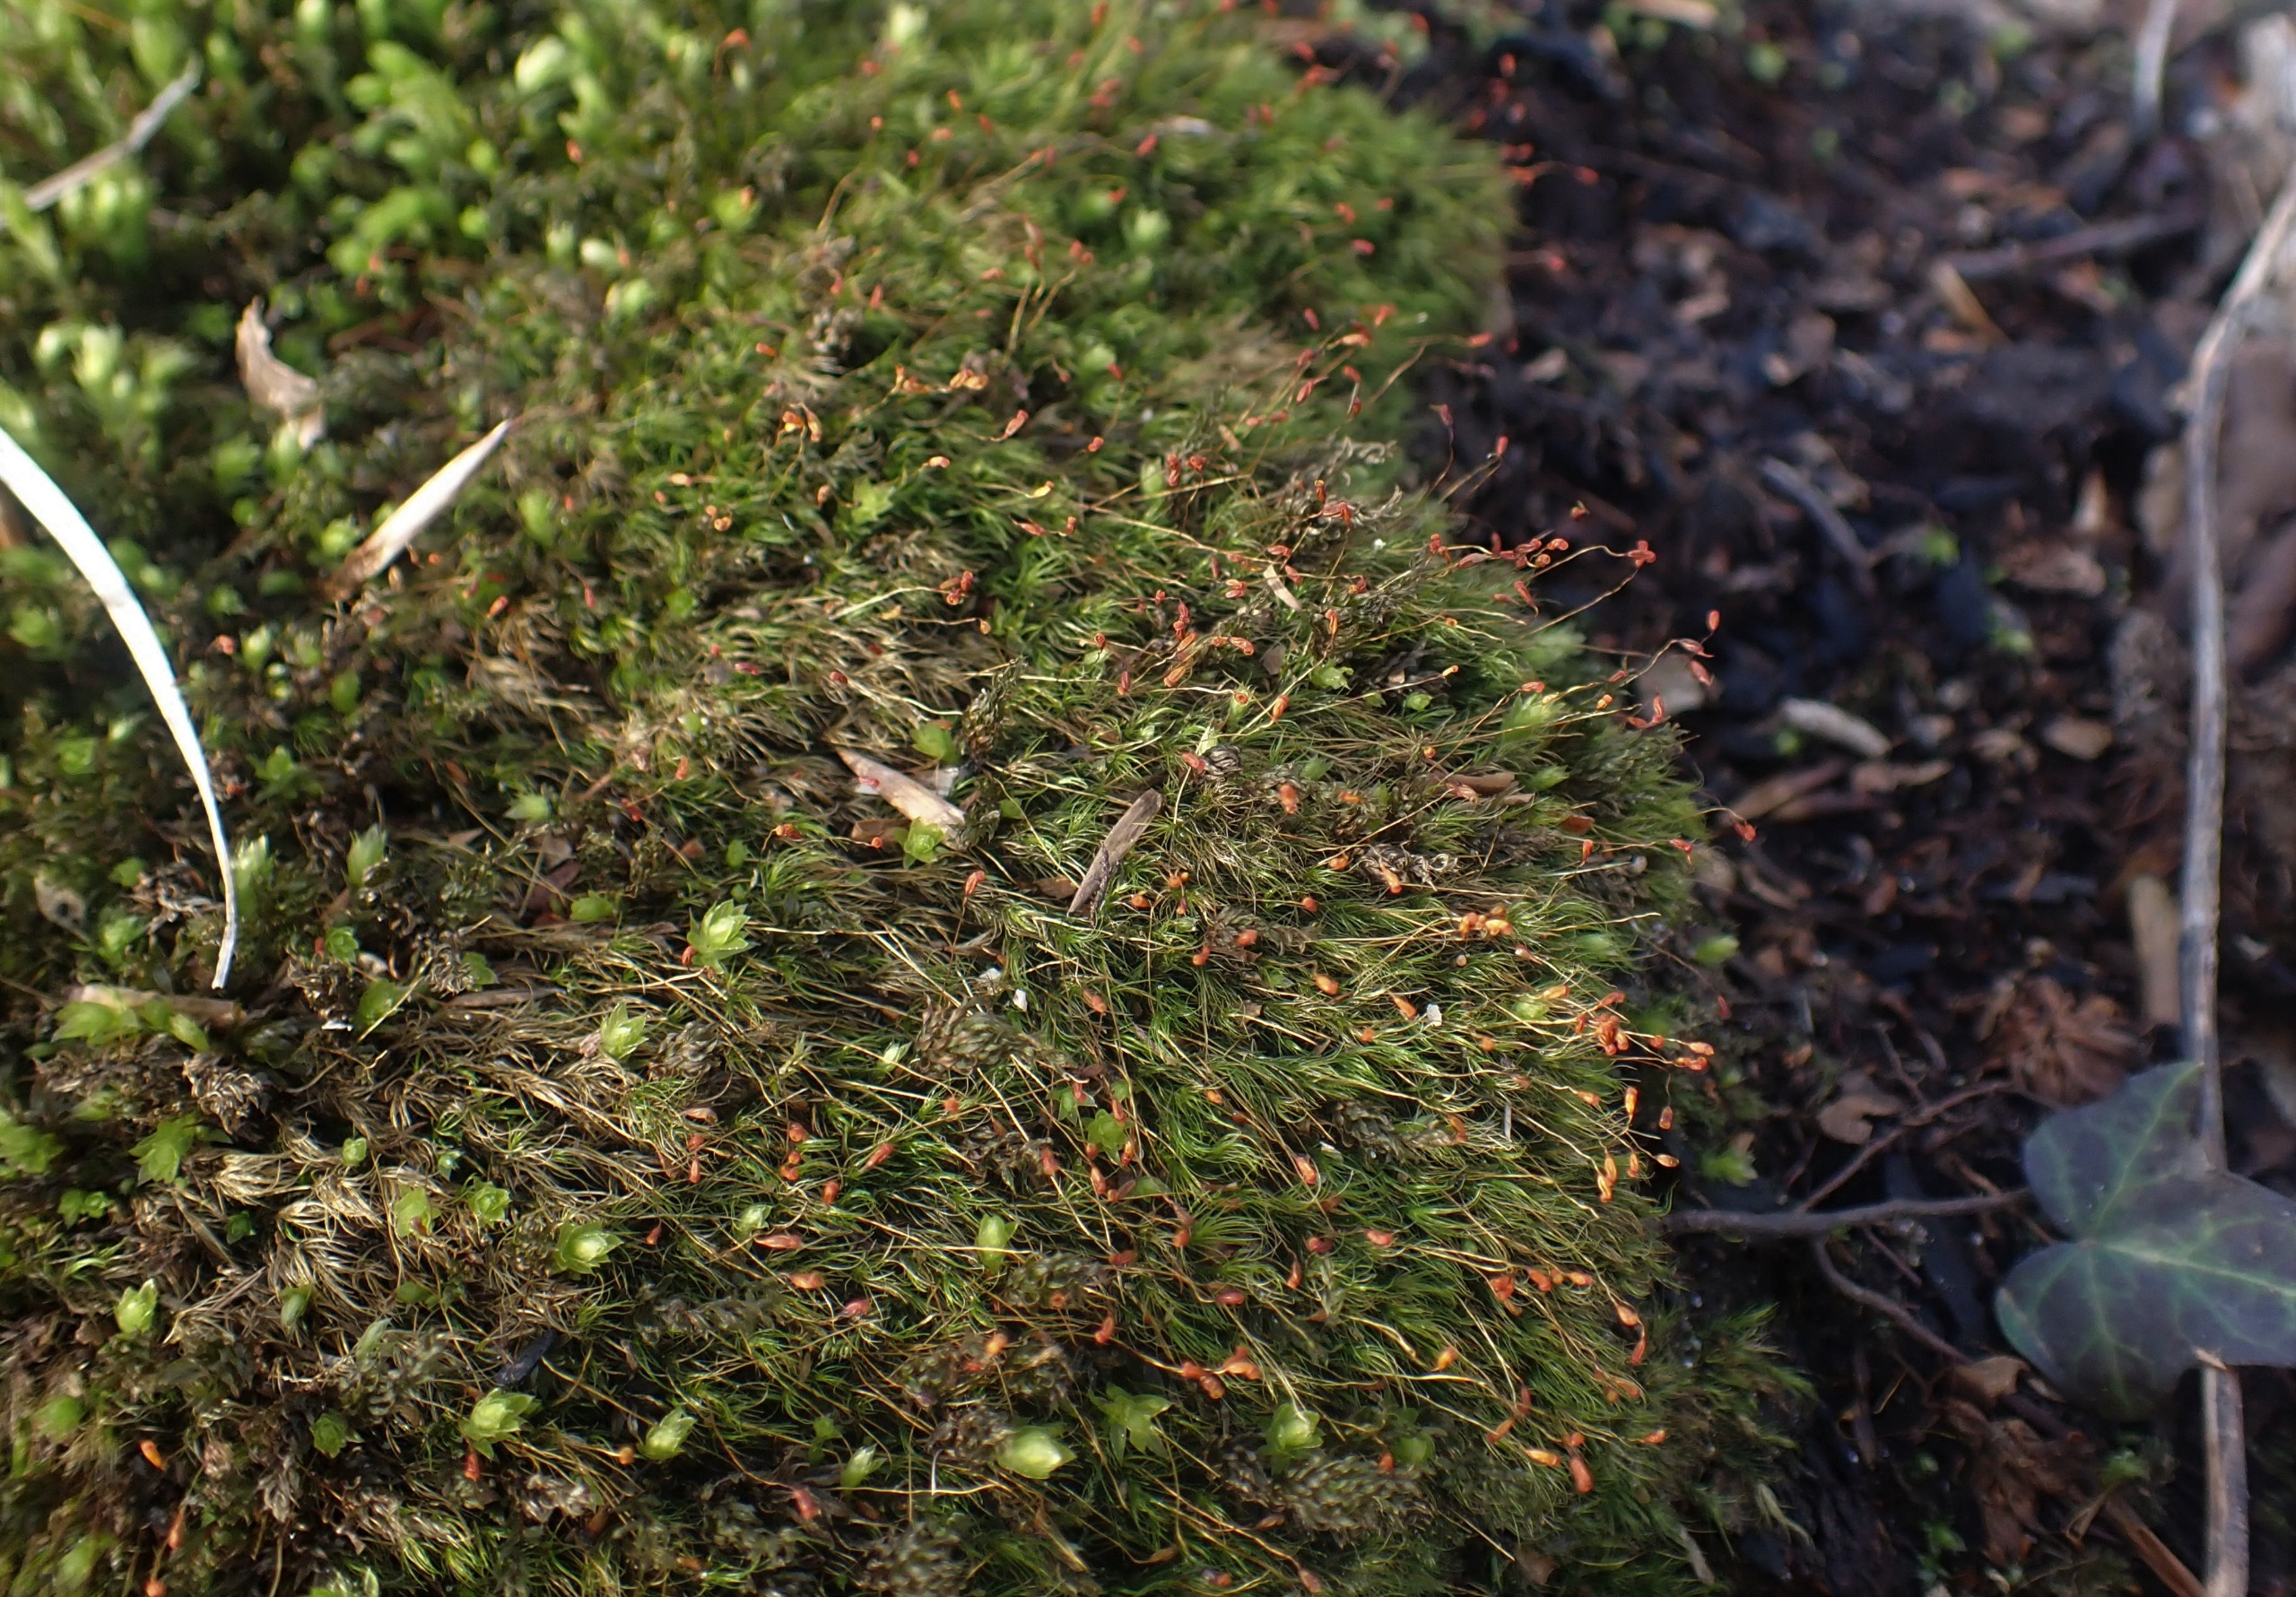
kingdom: Plantae
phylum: Bryophyta
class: Bryopsida
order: Dicranales
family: Dicranellaceae
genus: Dicranella
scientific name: Dicranella heteromalla
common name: Almindelig fløjlsmos
